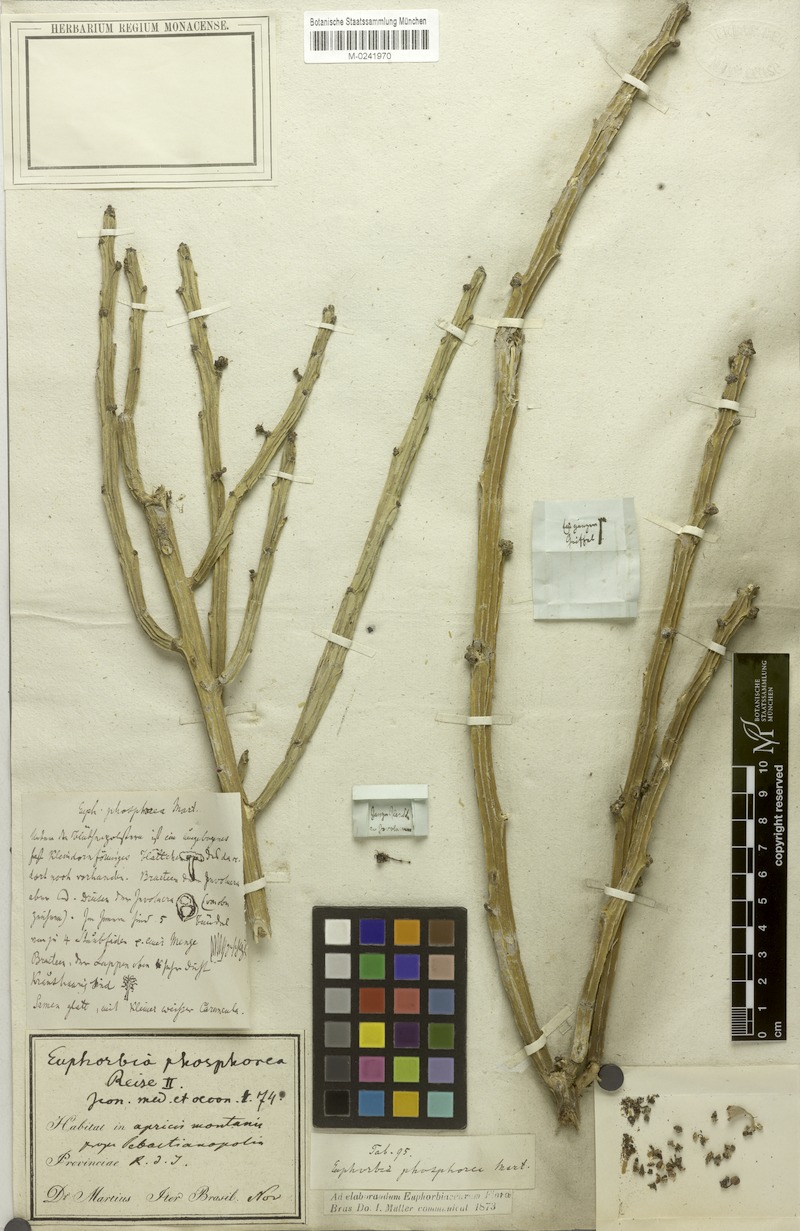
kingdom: Plantae
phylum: Tracheophyta
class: Magnoliopsida
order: Malpighiales
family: Euphorbiaceae
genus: Euphorbia
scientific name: Euphorbia phosphorea
